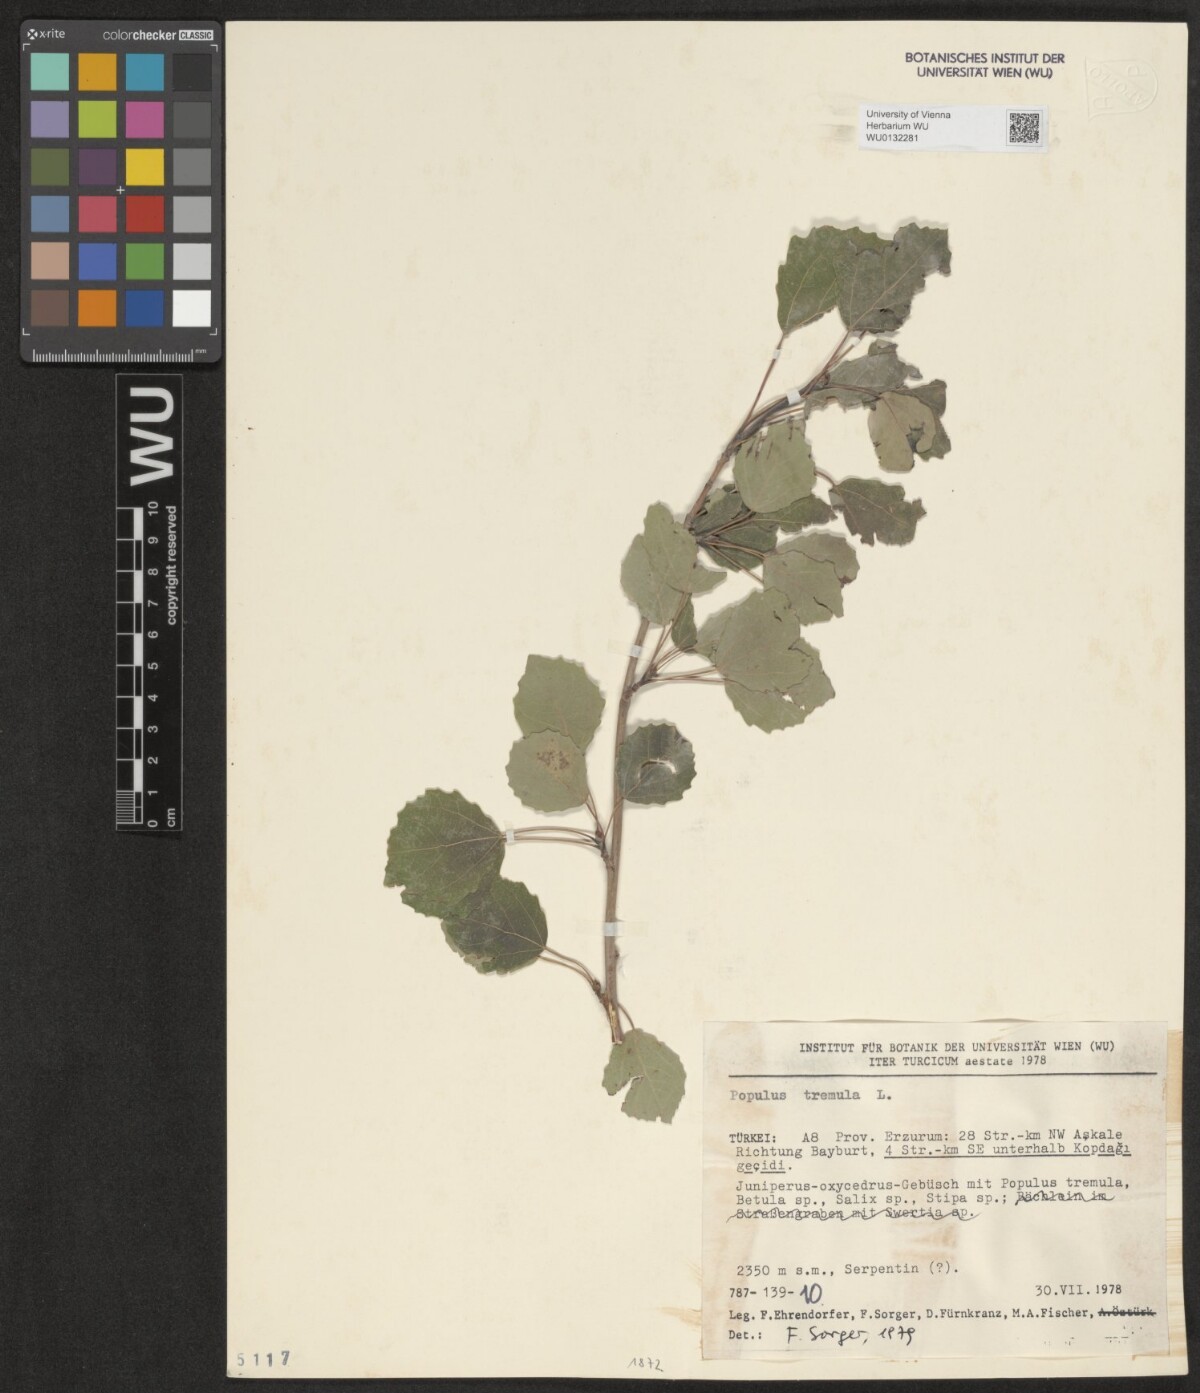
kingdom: Plantae
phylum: Tracheophyta
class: Magnoliopsida
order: Malpighiales
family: Salicaceae
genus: Populus
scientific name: Populus tremula
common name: European aspen
